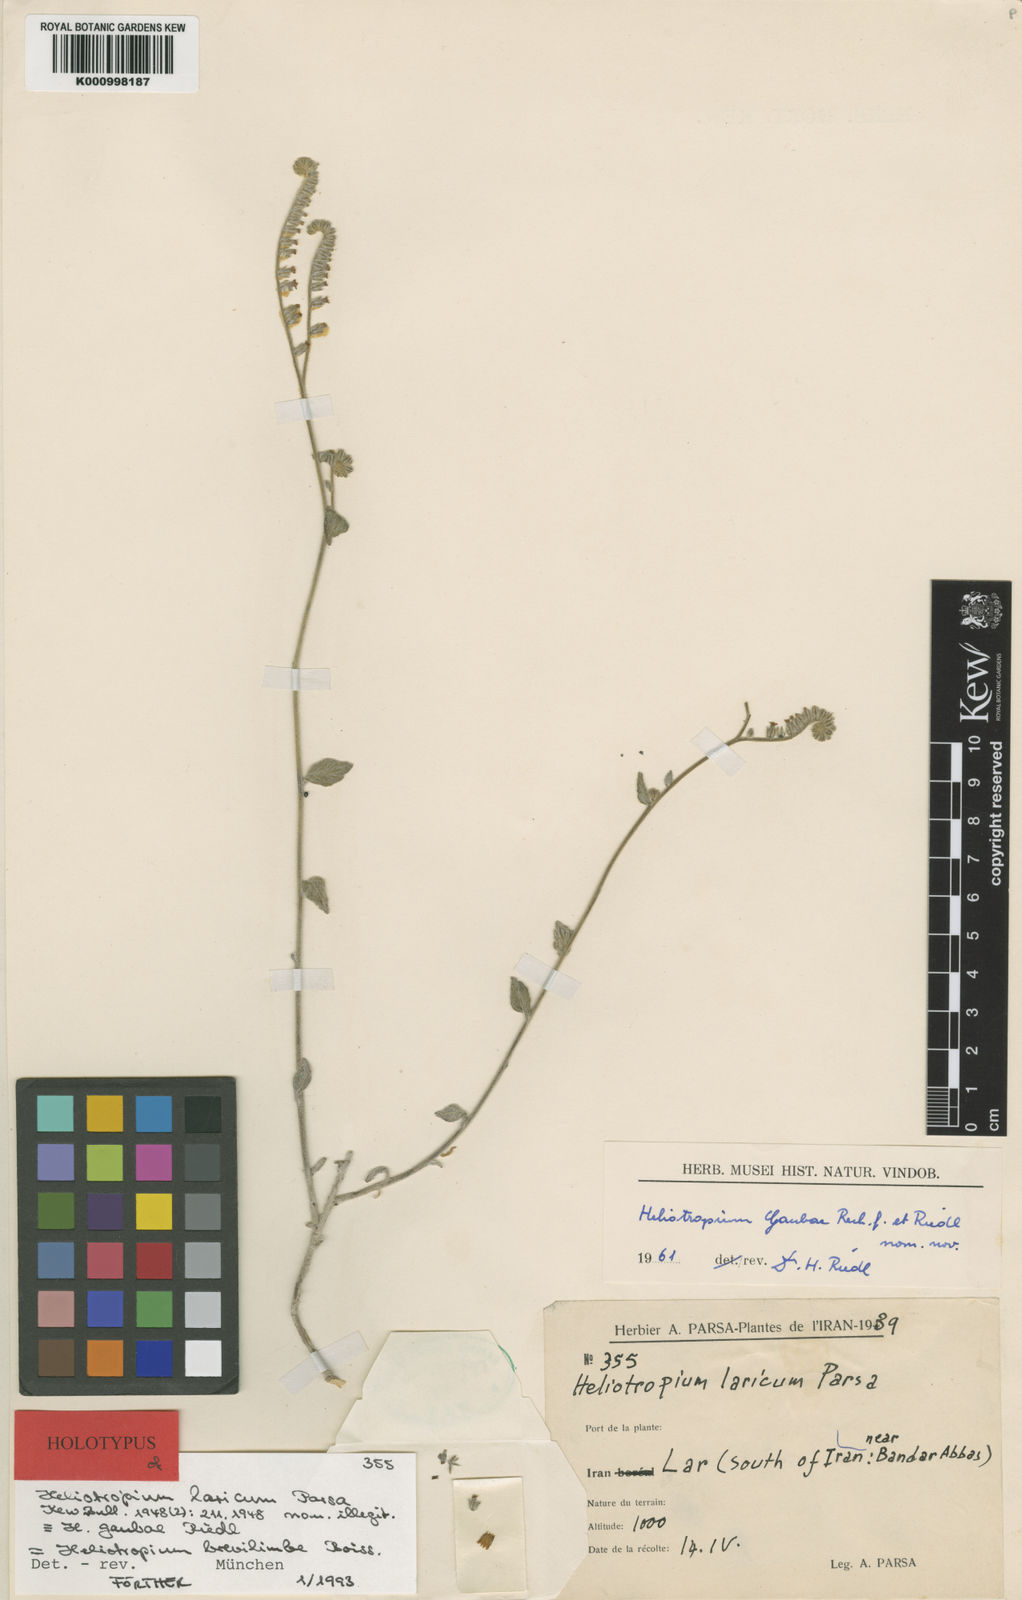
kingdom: Plantae
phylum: Tracheophyta
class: Magnoliopsida
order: Boraginales
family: Heliotropiaceae
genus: Heliotropium
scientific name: Heliotropium gaubae
